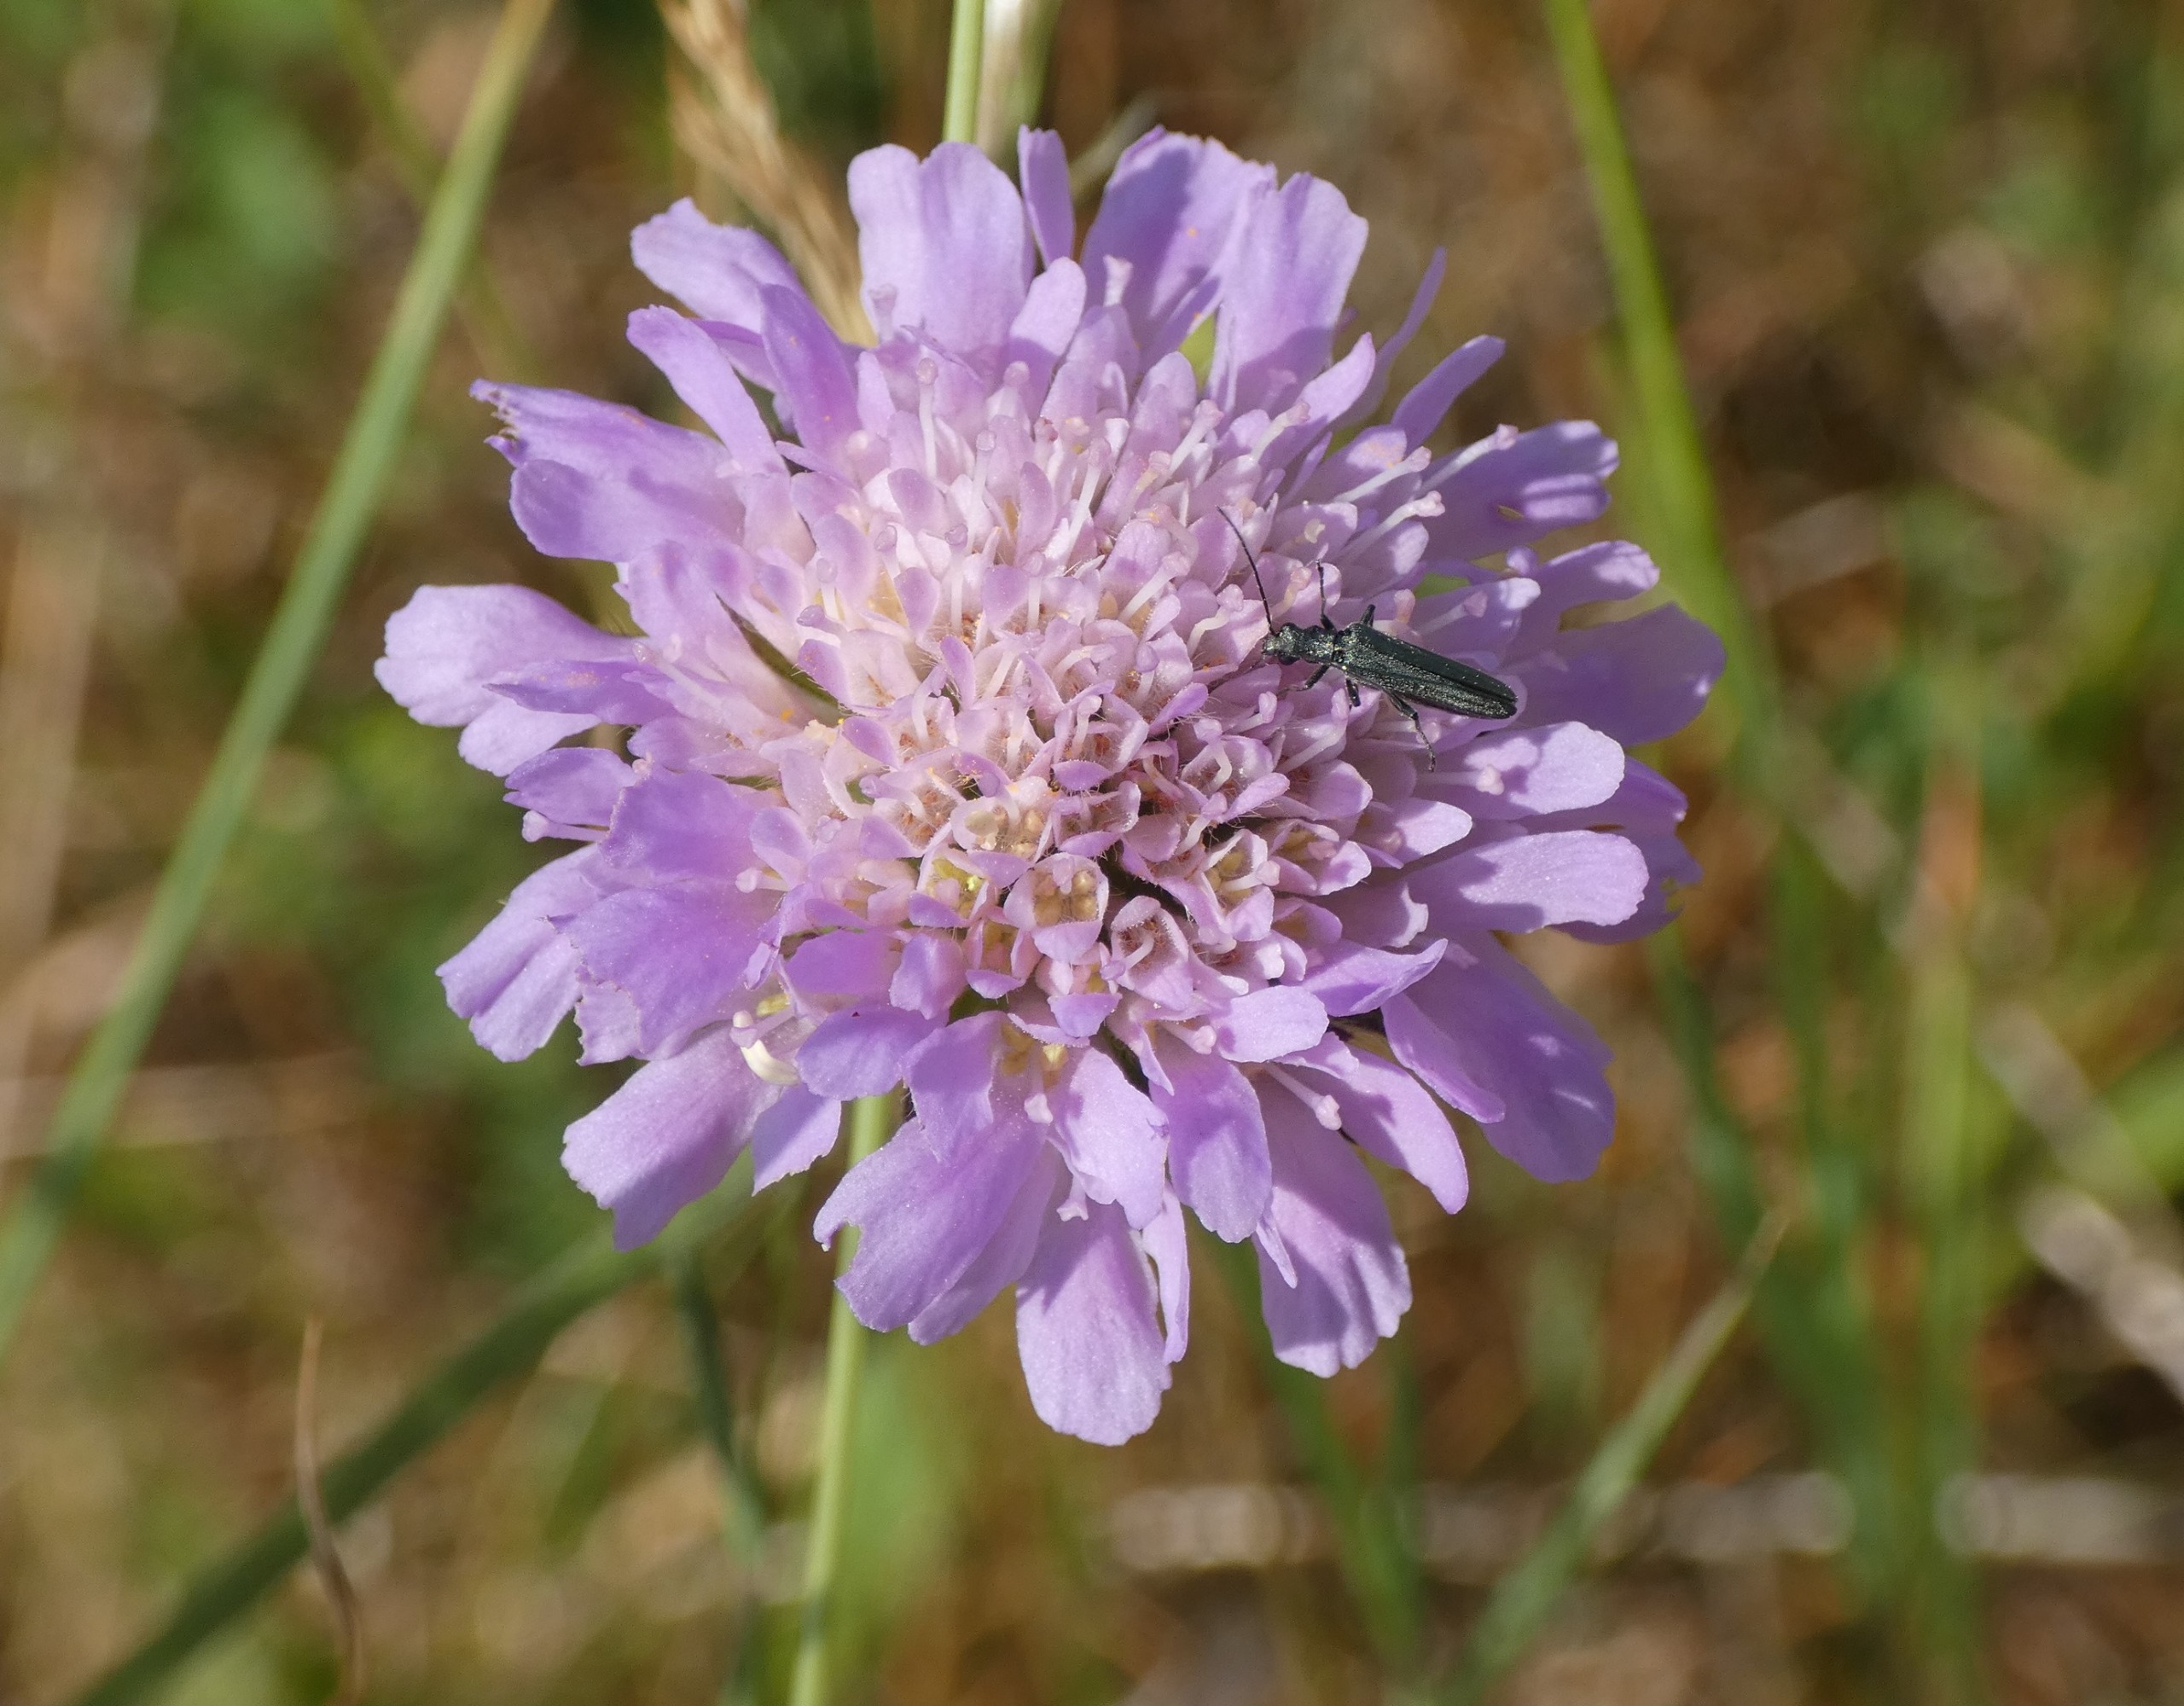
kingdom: Plantae
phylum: Tracheophyta
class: Magnoliopsida
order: Dipsacales
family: Caprifoliaceae
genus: Knautia
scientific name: Knautia arvensis
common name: Blåhat
